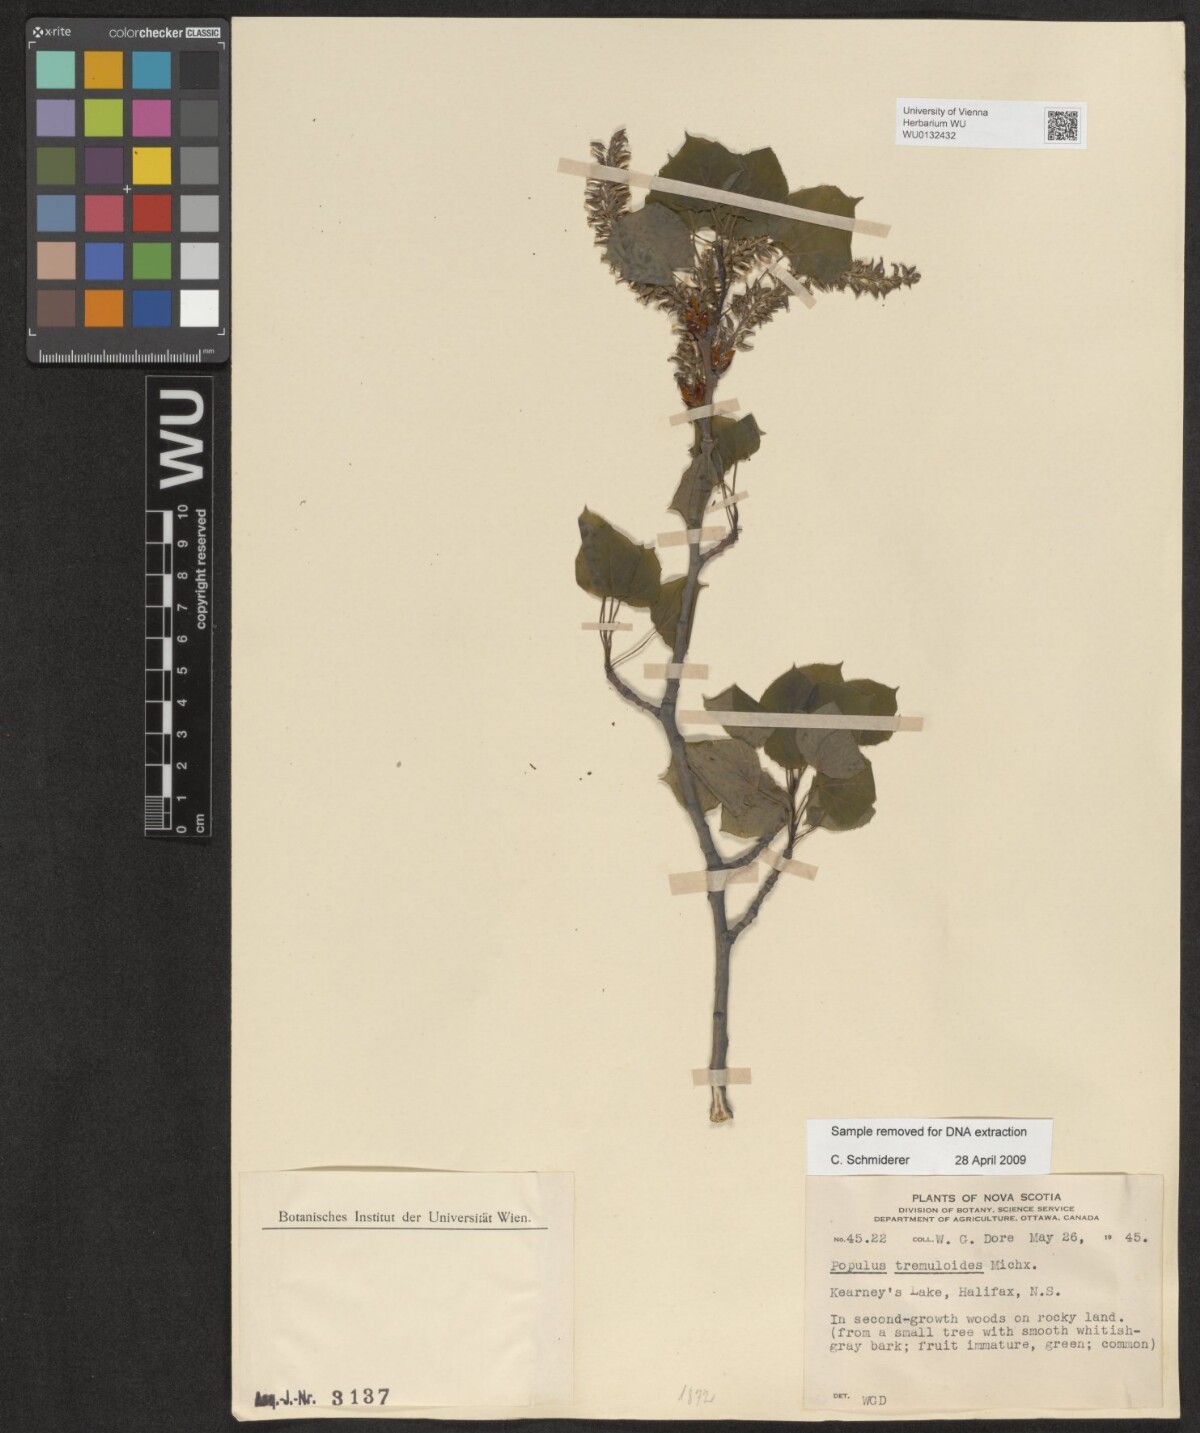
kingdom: Plantae
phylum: Tracheophyta
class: Magnoliopsida
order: Malpighiales
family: Salicaceae
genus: Populus
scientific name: Populus tremuloides
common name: Quaking aspen
